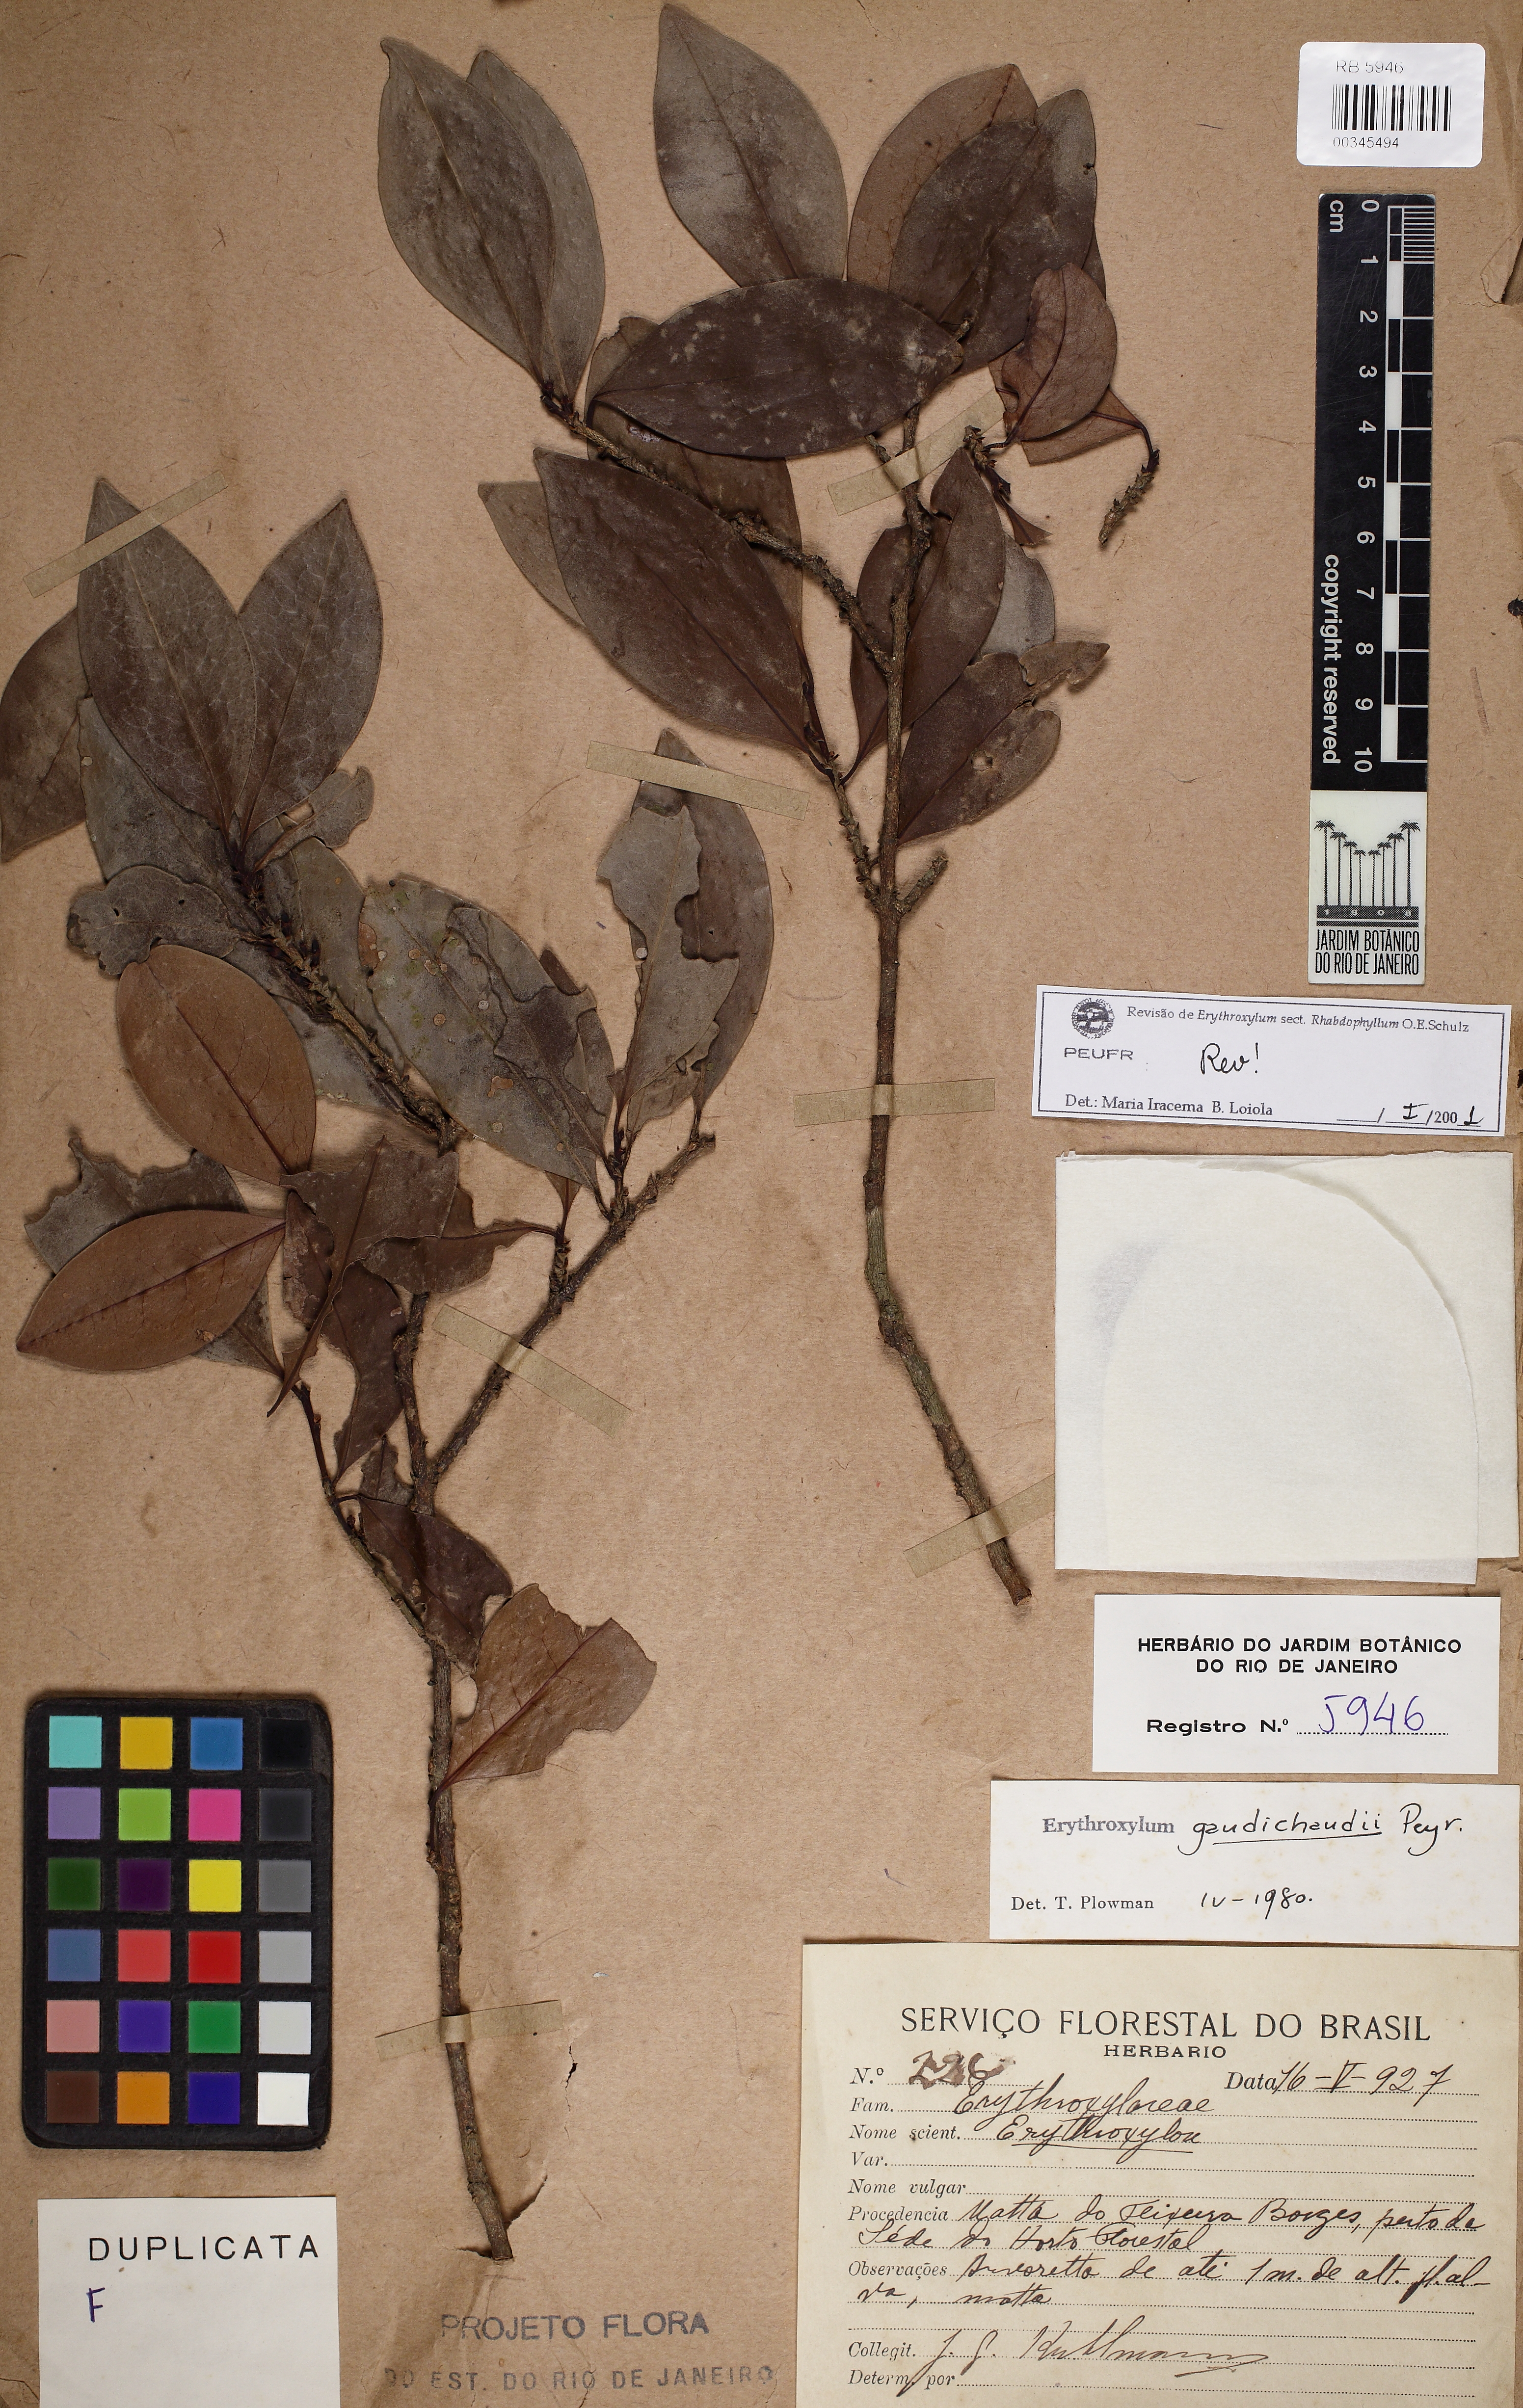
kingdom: Plantae
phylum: Tracheophyta
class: Magnoliopsida
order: Malpighiales
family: Erythroxylaceae
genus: Erythroxylum
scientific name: Erythroxylum gaudichaudii
